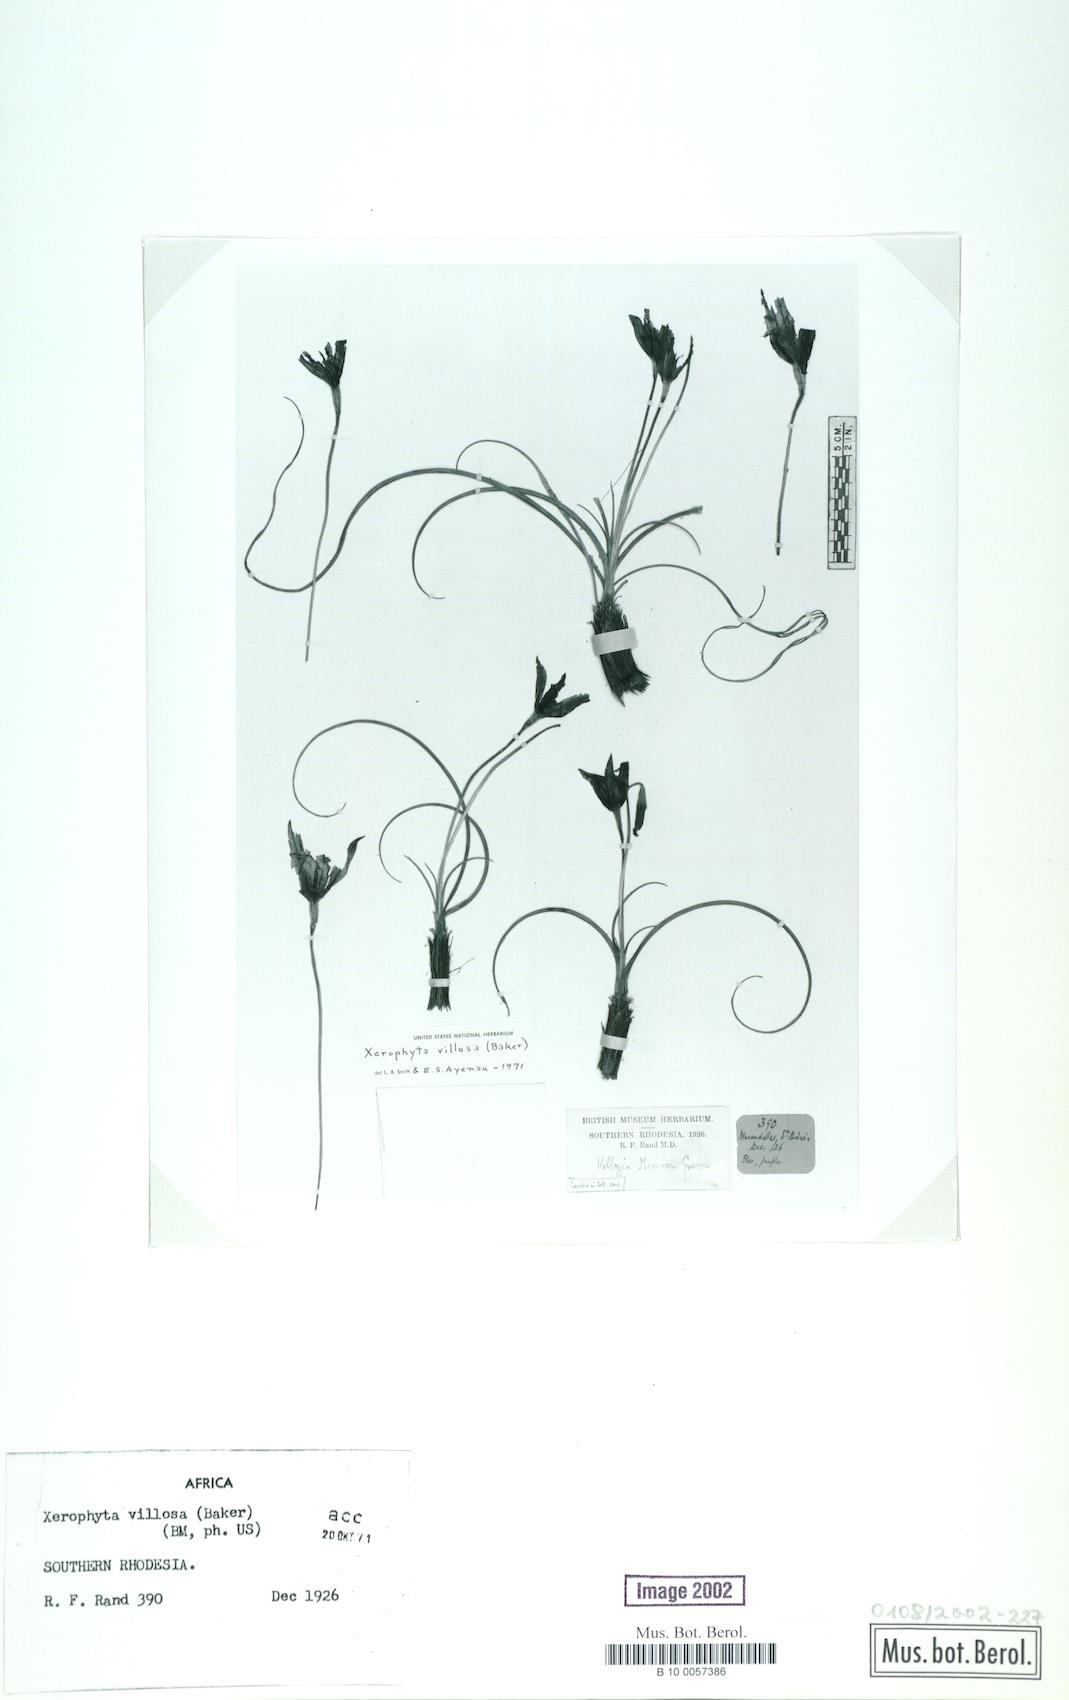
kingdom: Plantae
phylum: Tracheophyta
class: Liliopsida
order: Pandanales
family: Velloziaceae
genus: Xerophyta
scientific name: Xerophyta villosa
